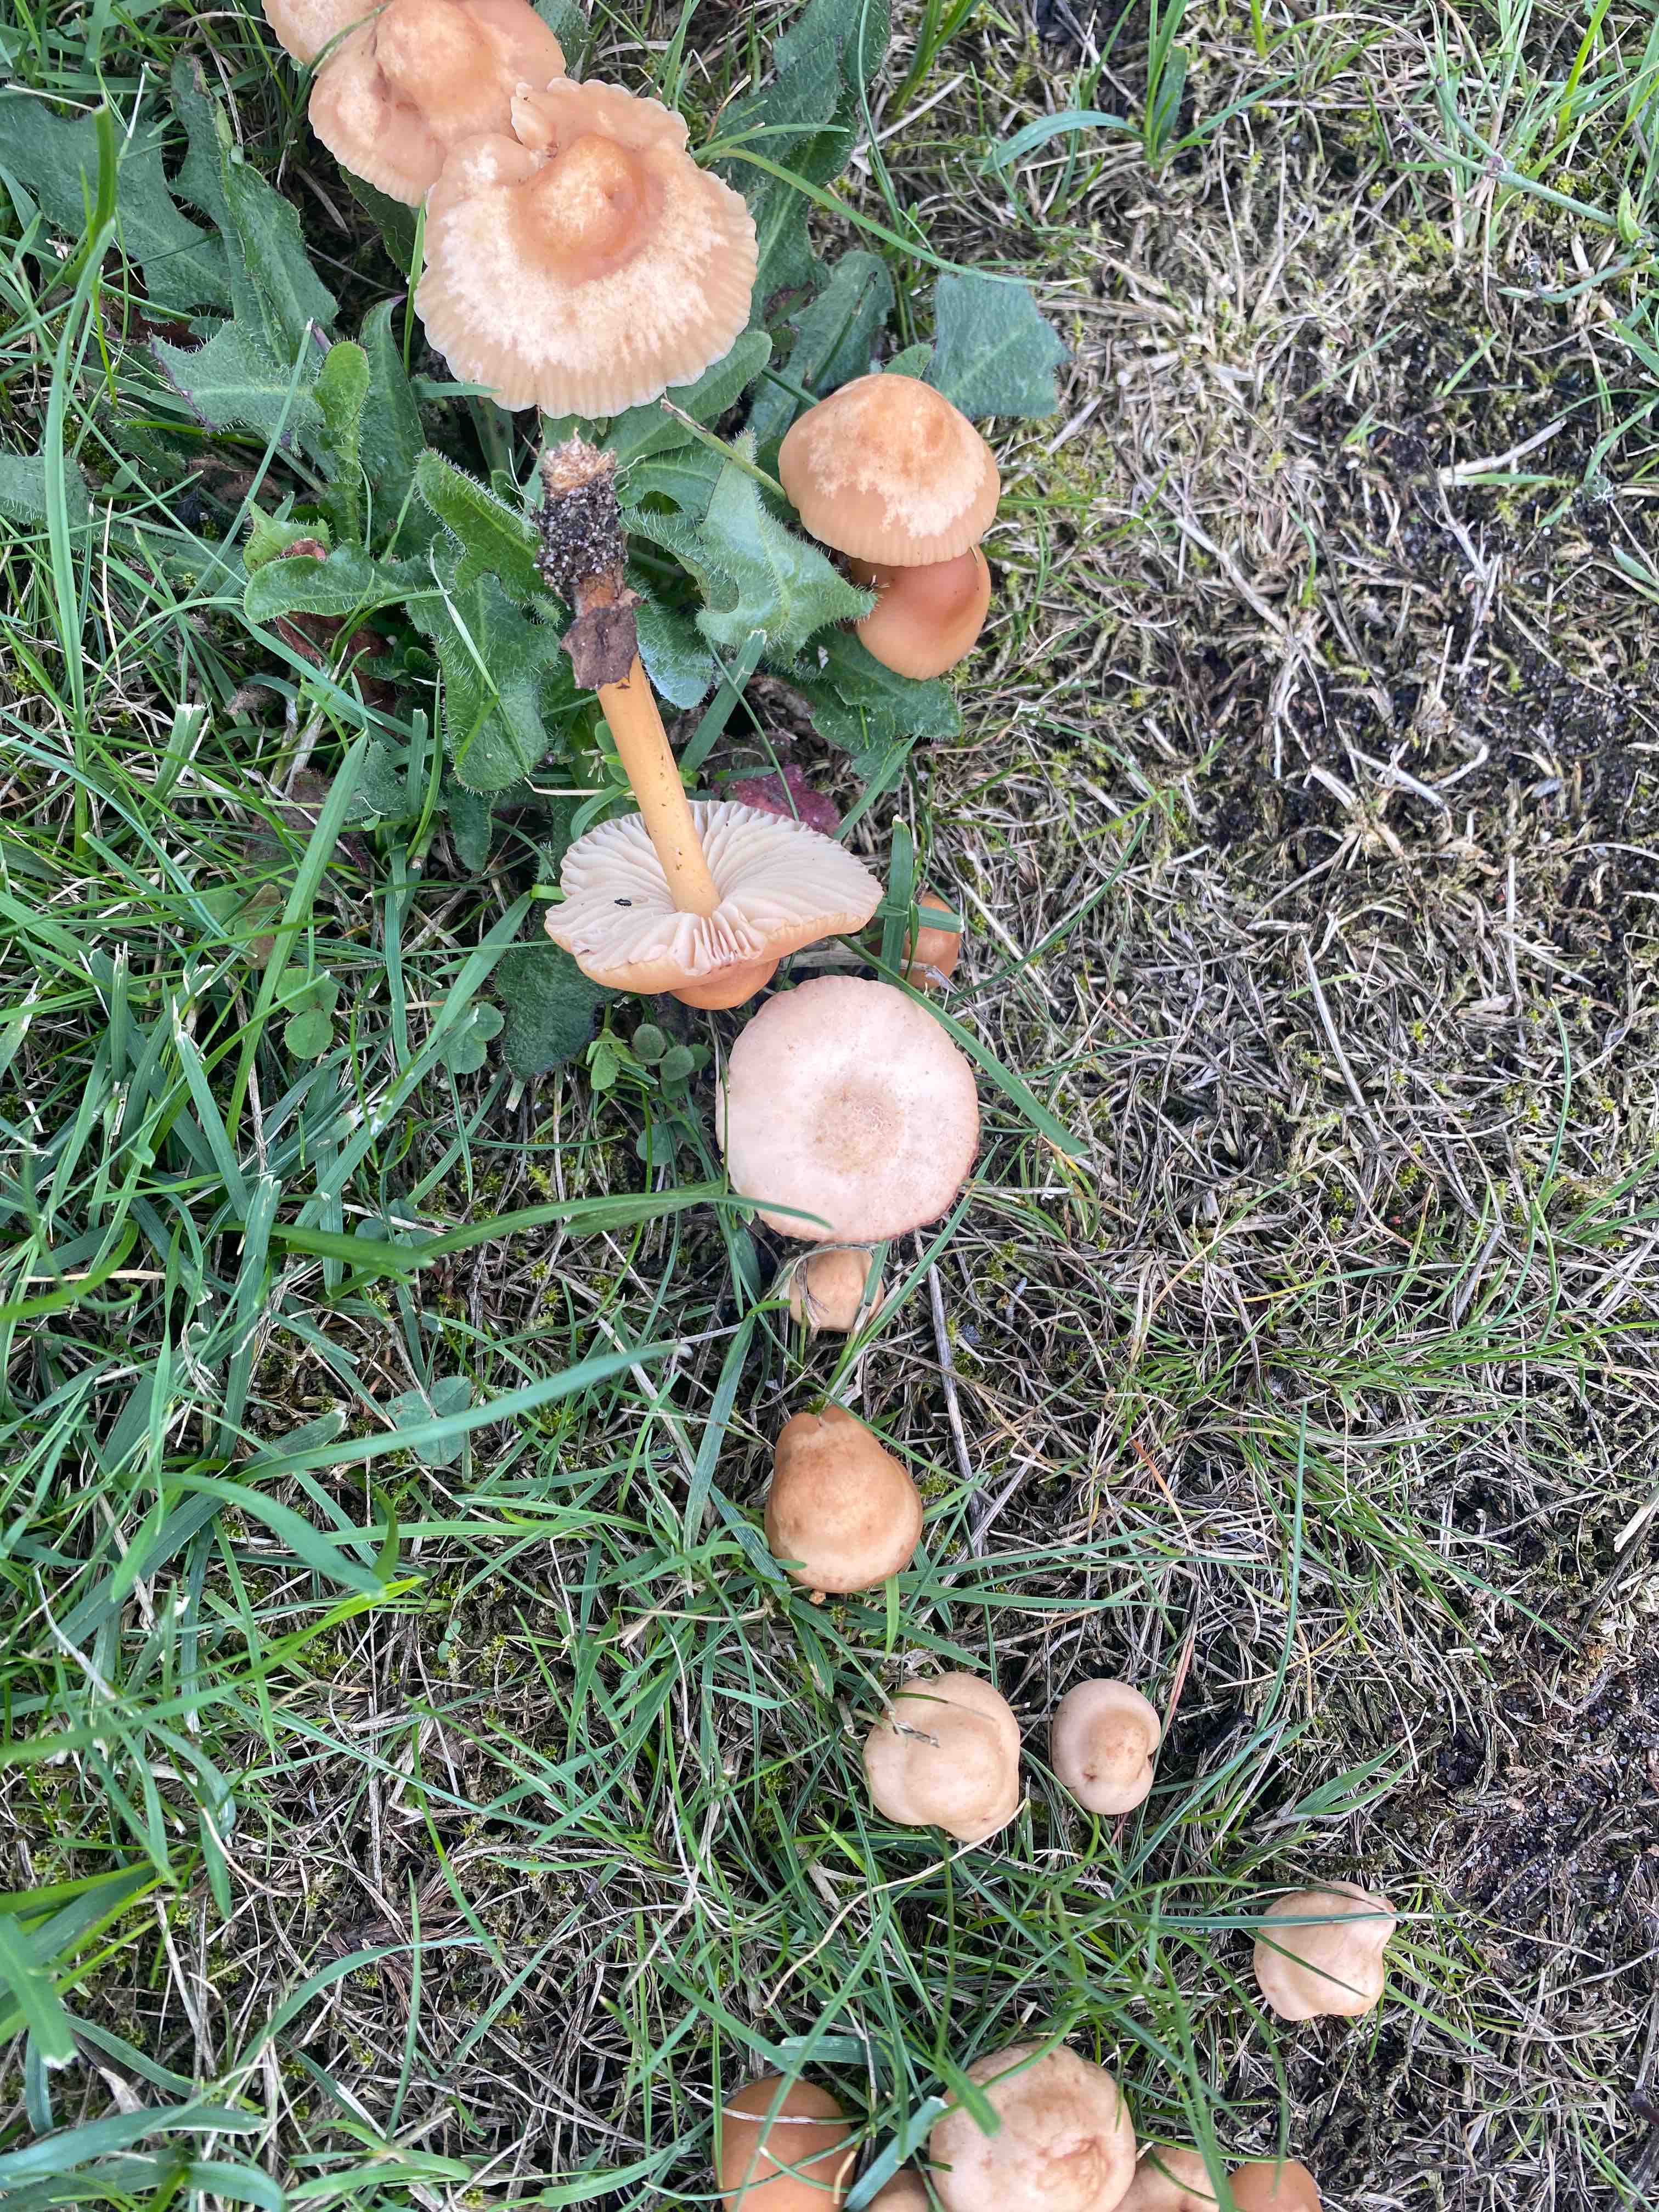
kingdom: Fungi
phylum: Basidiomycota
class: Agaricomycetes
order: Agaricales
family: Marasmiaceae
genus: Marasmius
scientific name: Marasmius oreades
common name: elledans-bruskhat
